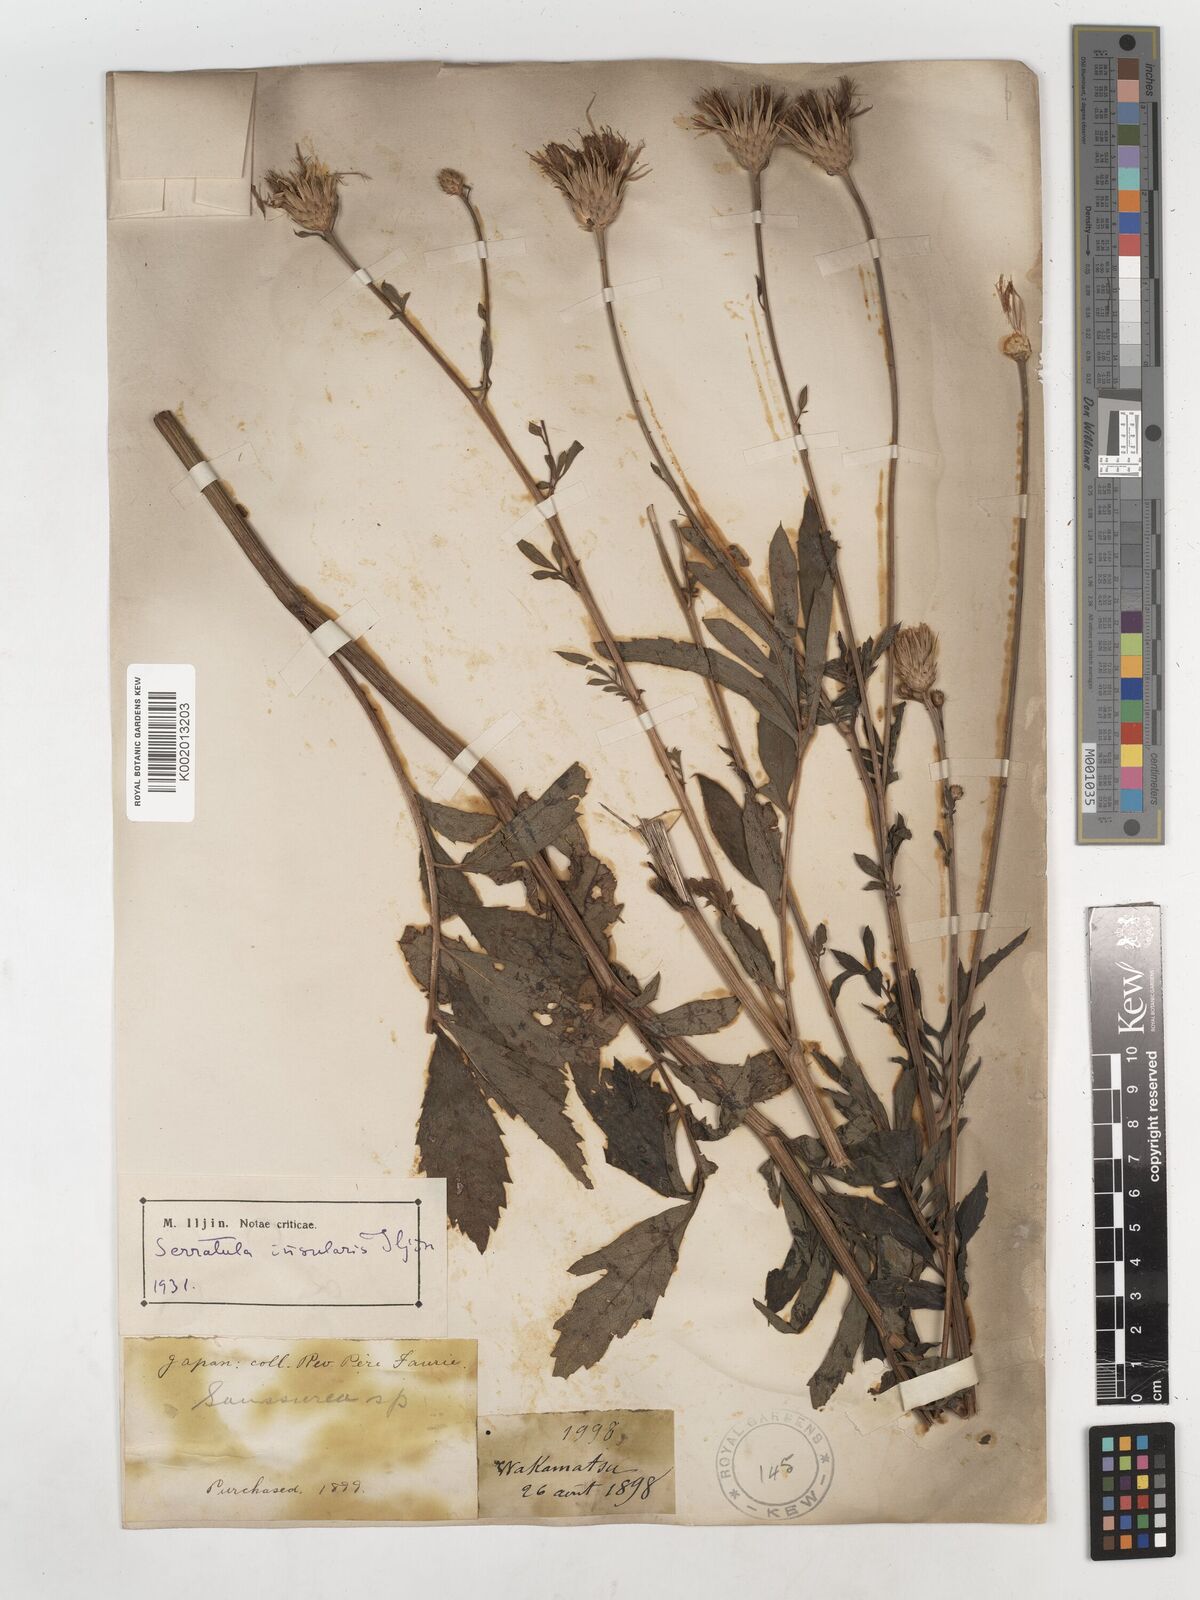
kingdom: Plantae
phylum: Tracheophyta
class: Magnoliopsida
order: Asterales
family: Asteraceae
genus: Serratula
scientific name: Serratula coronata
